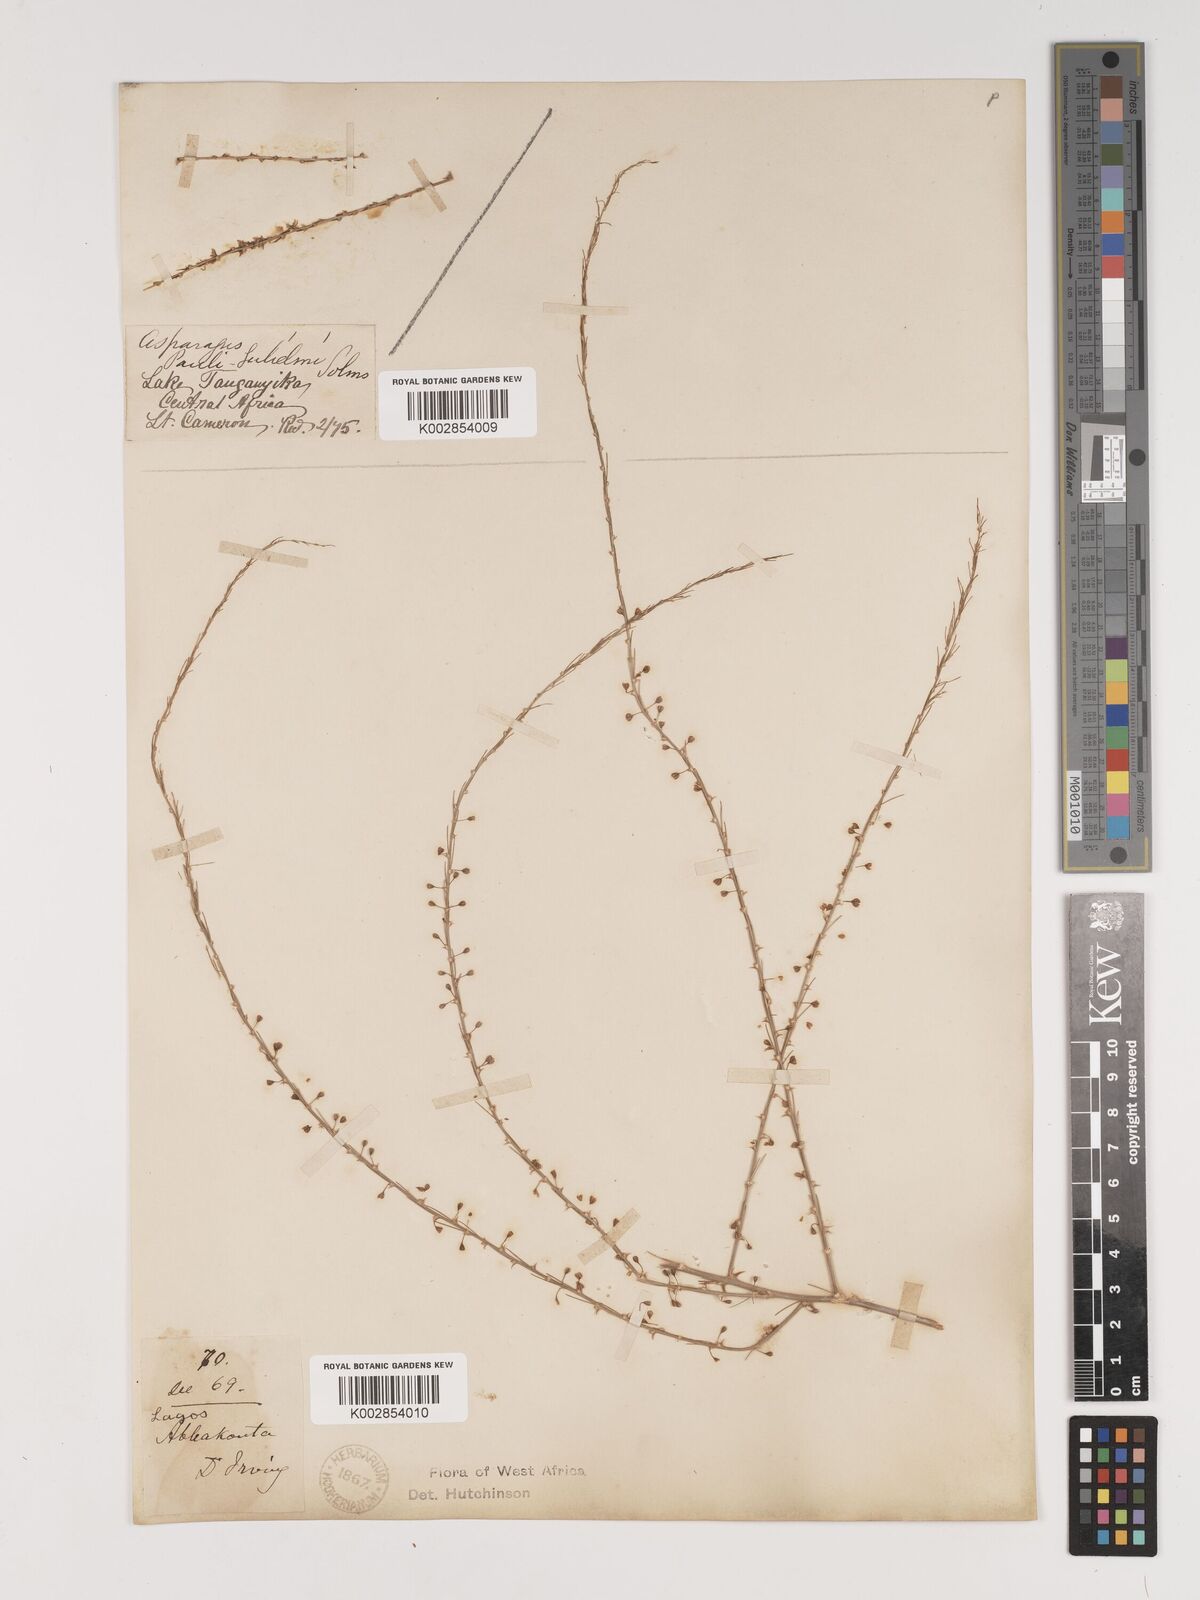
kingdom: Plantae
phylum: Tracheophyta
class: Liliopsida
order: Asparagales
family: Asparagaceae
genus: Asparagus
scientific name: Asparagus flagellaris
